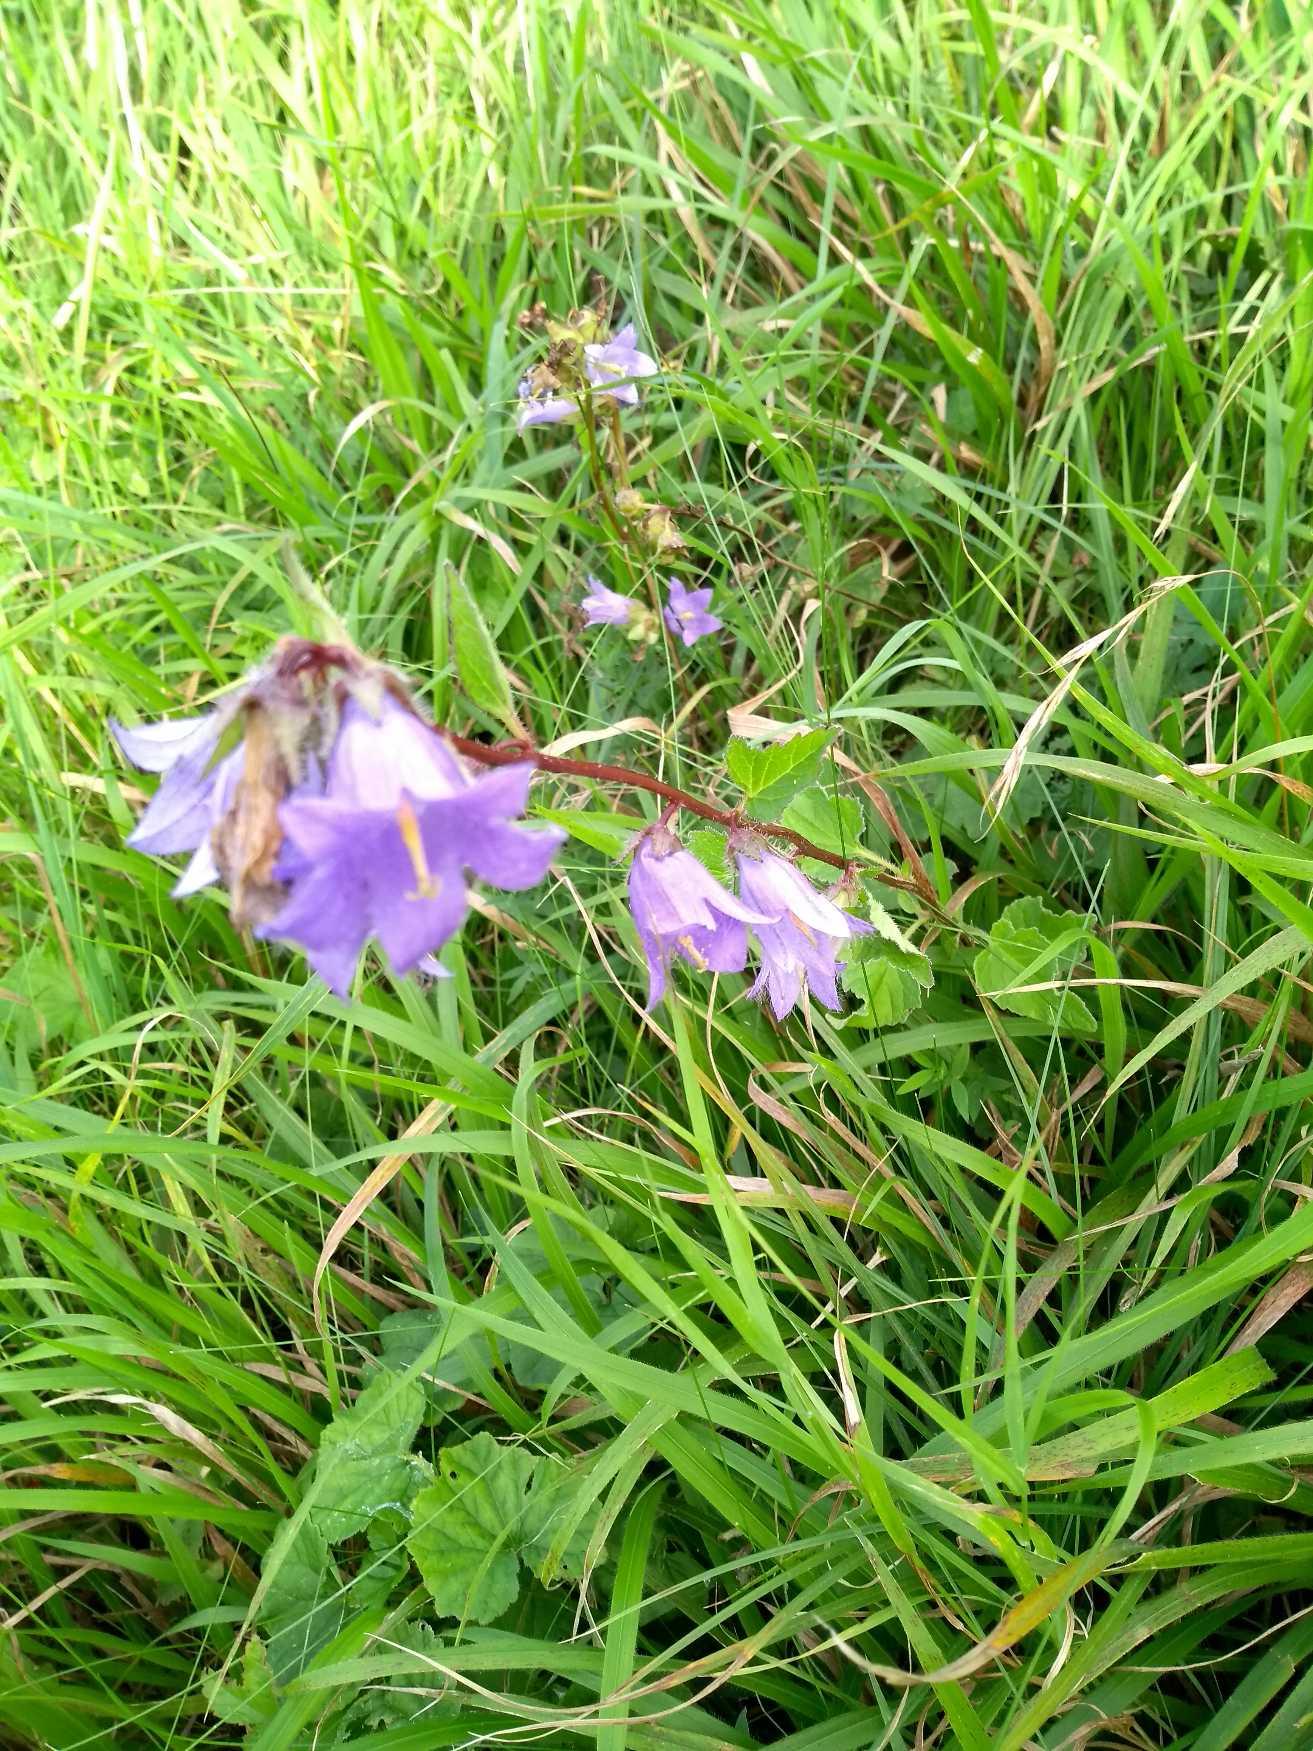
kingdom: Plantae
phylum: Tracheophyta
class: Magnoliopsida
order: Asterales
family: Campanulaceae
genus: Campanula
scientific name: Campanula trachelium
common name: Nælde-klokke
